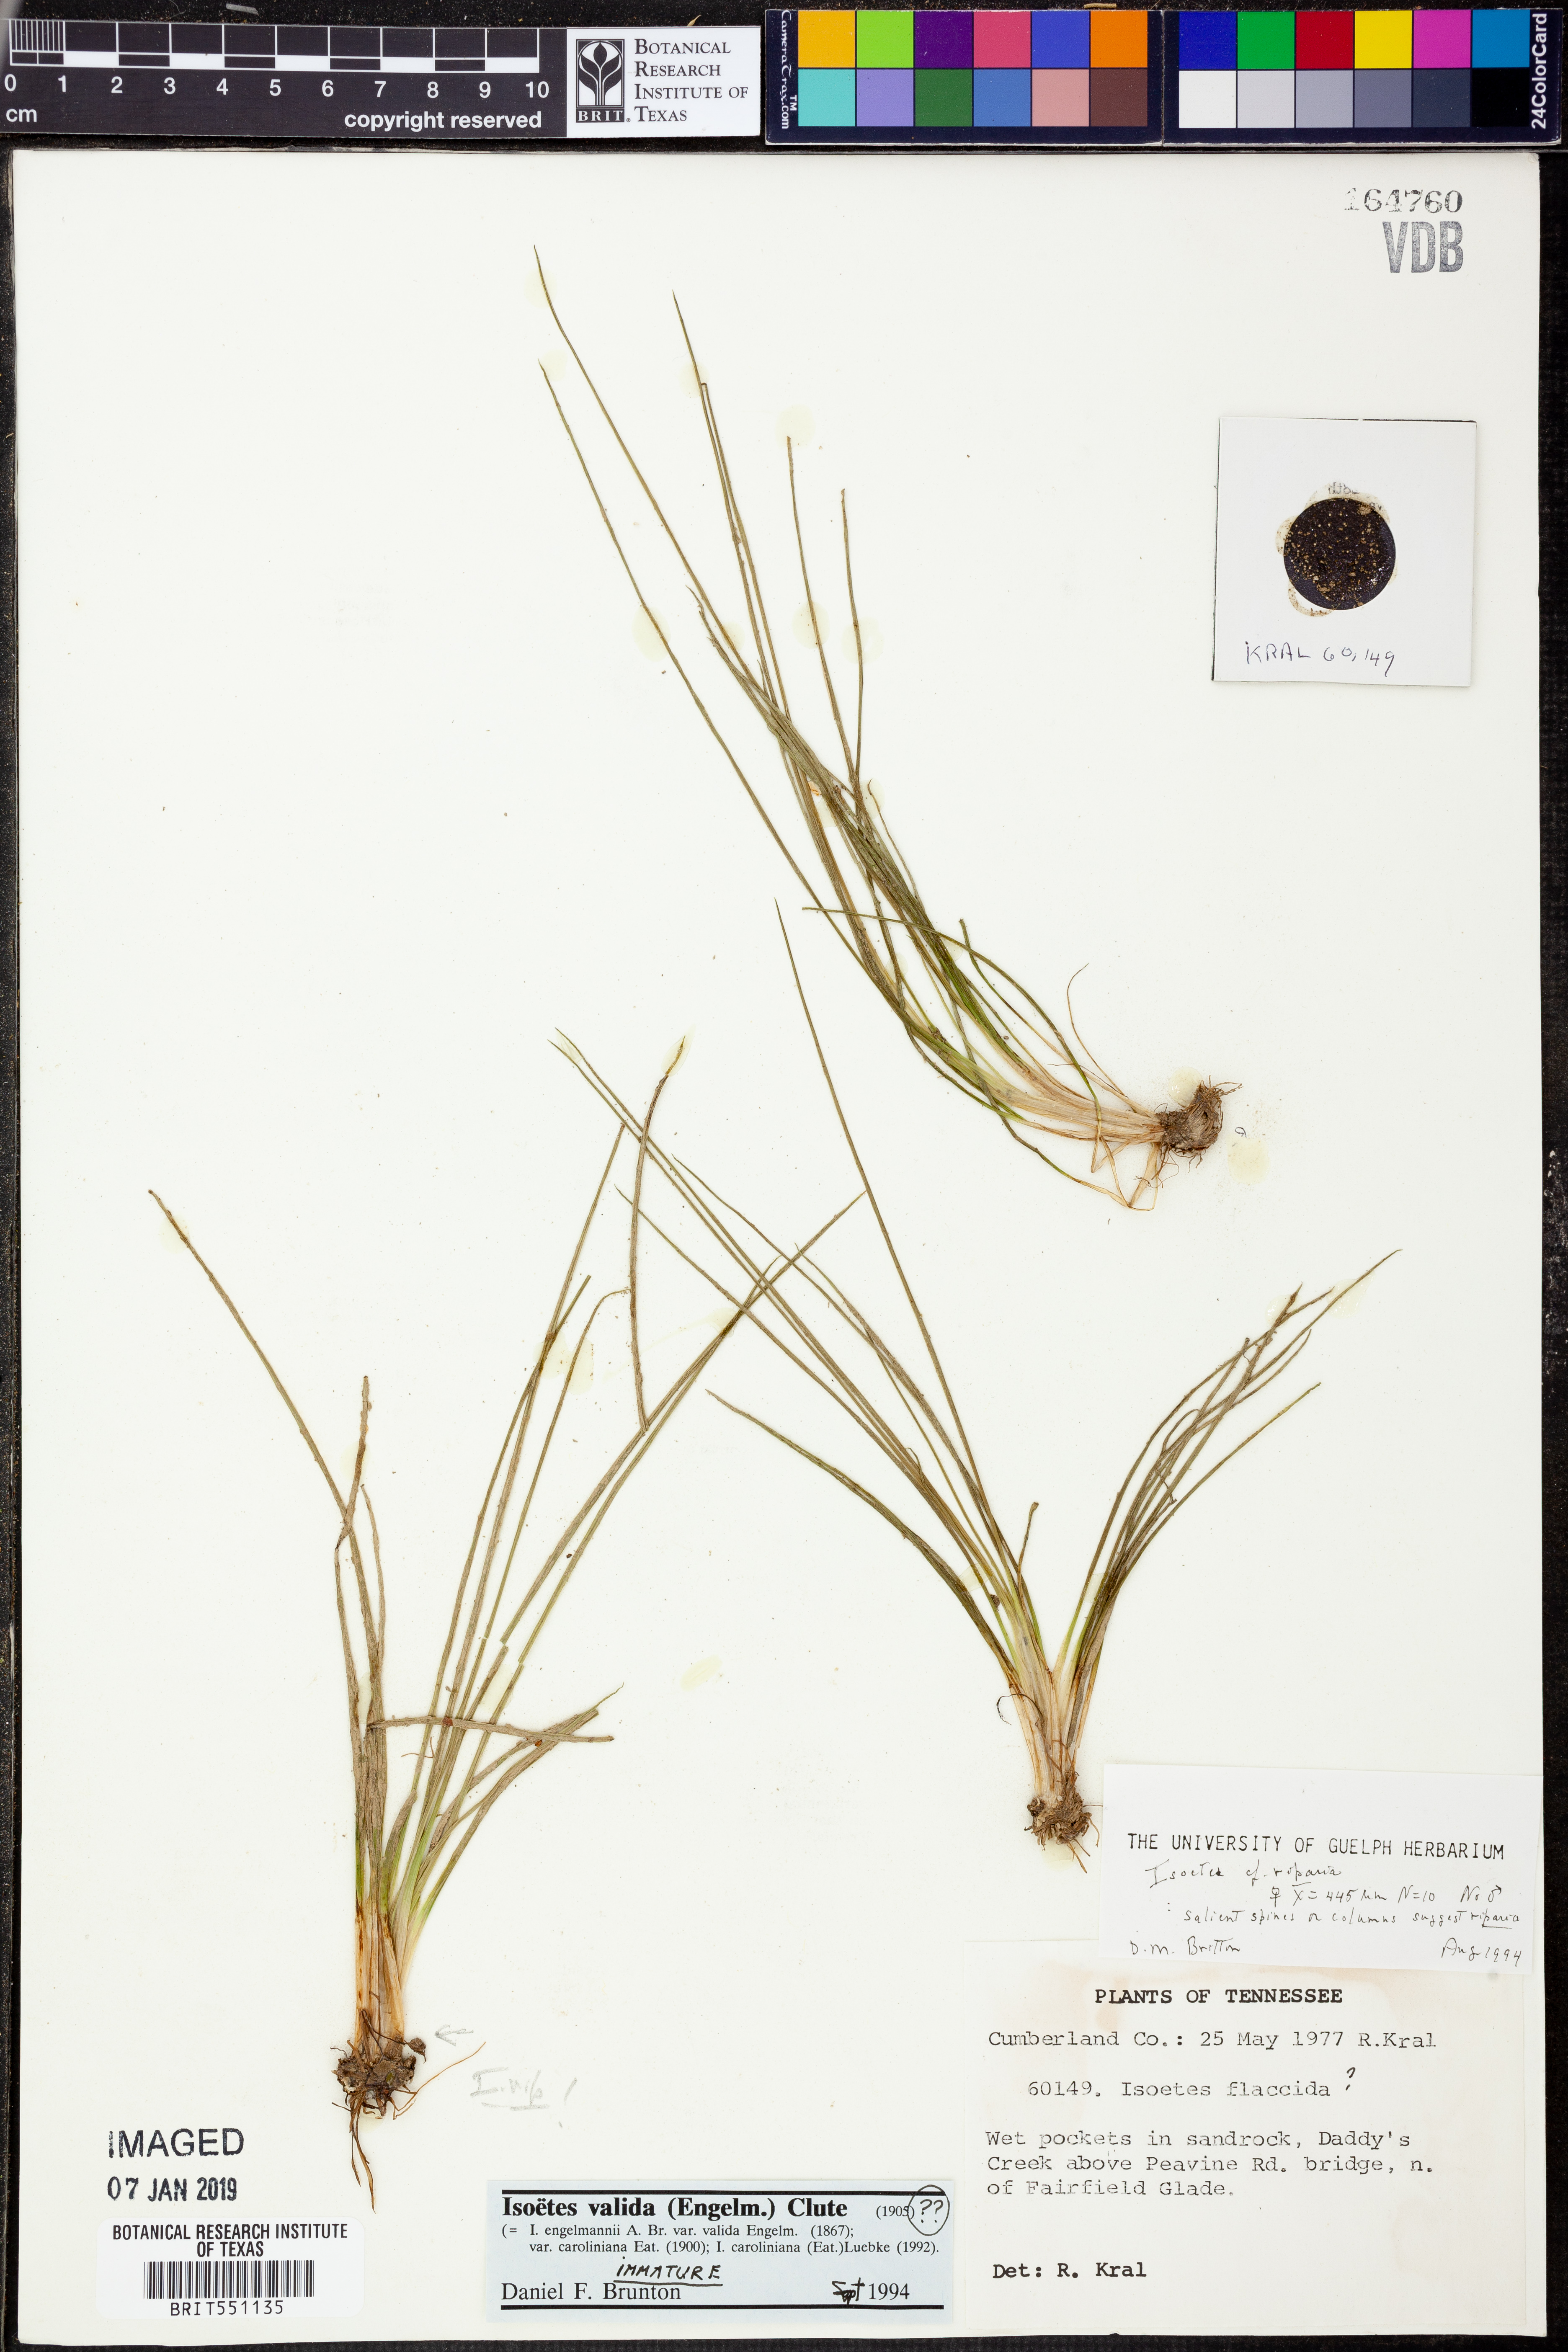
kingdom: Plantae
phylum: Tracheophyta
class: Lycopodiopsida
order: Isoetales
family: Isoetaceae
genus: Isoetes
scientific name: Isoetes valida
